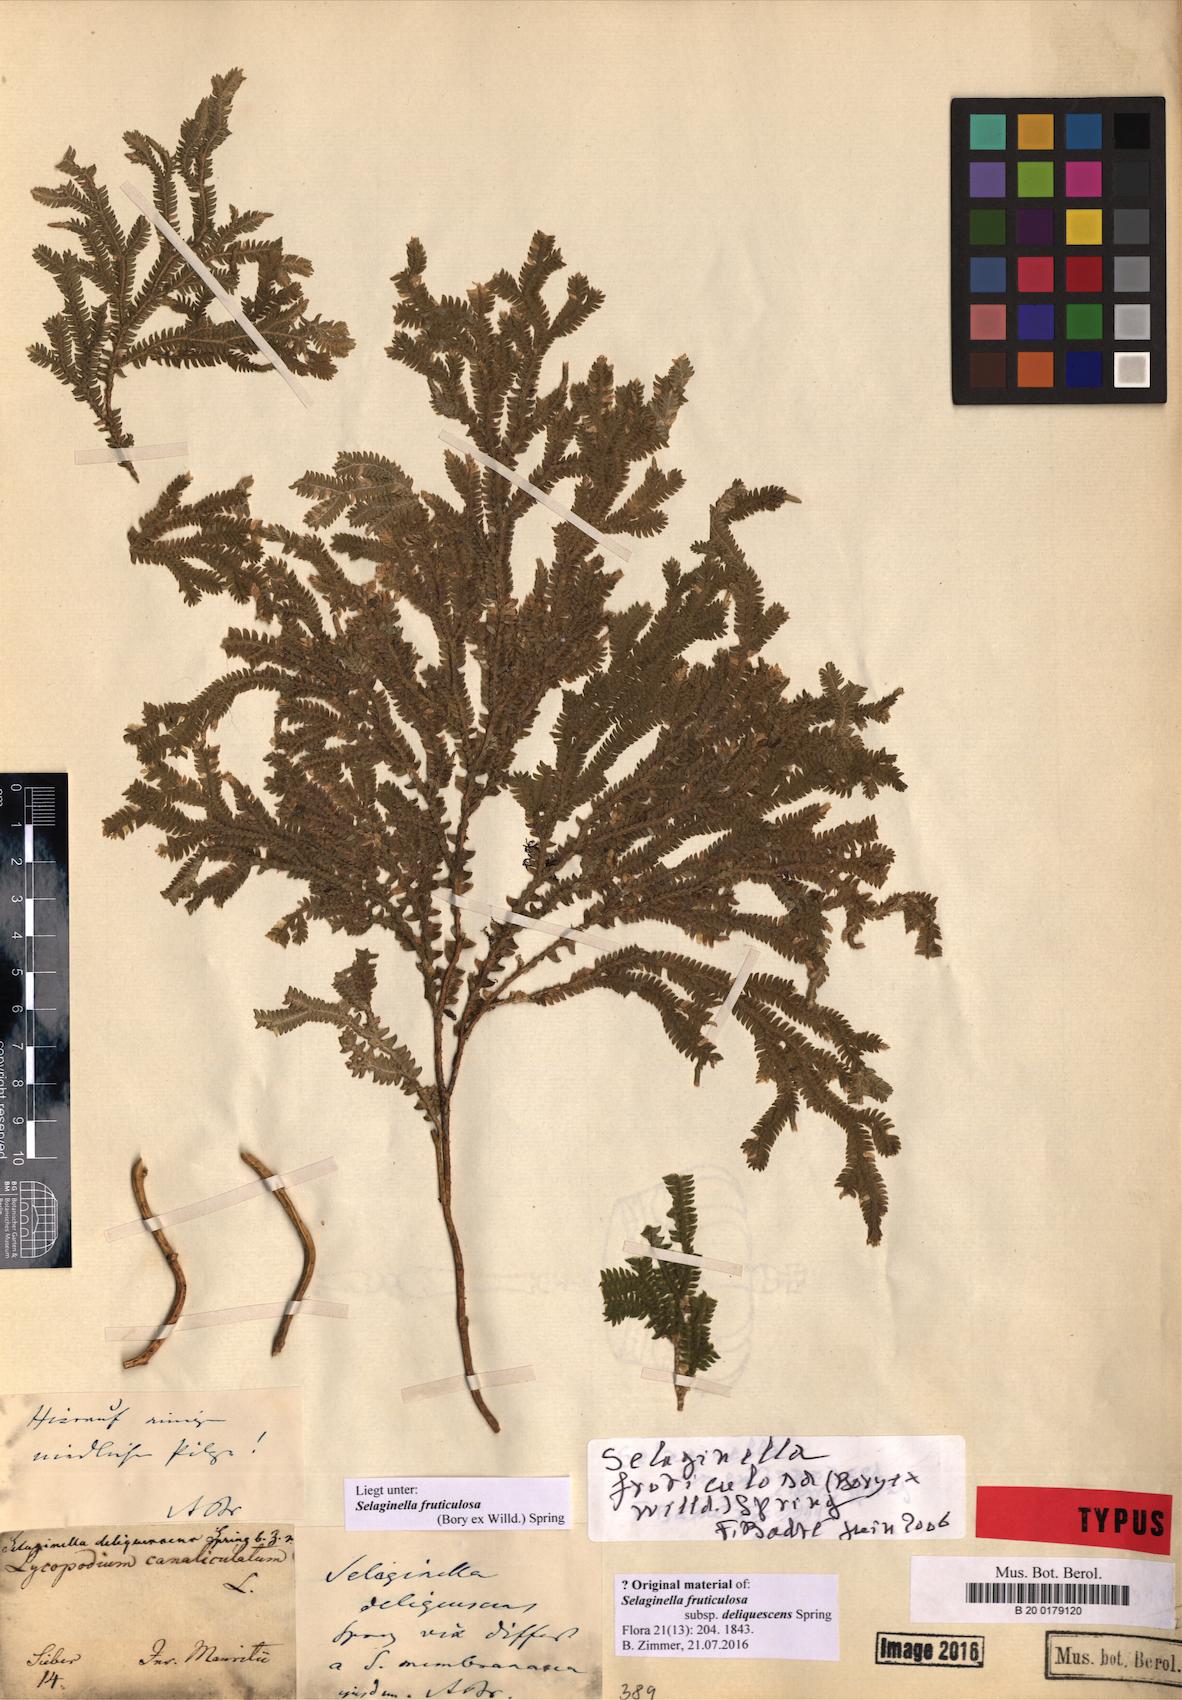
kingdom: Plantae
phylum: Tracheophyta
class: Lycopodiopsida
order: Selaginellales
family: Selaginellaceae
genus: Selaginella
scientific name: Selaginella fruticulosa
